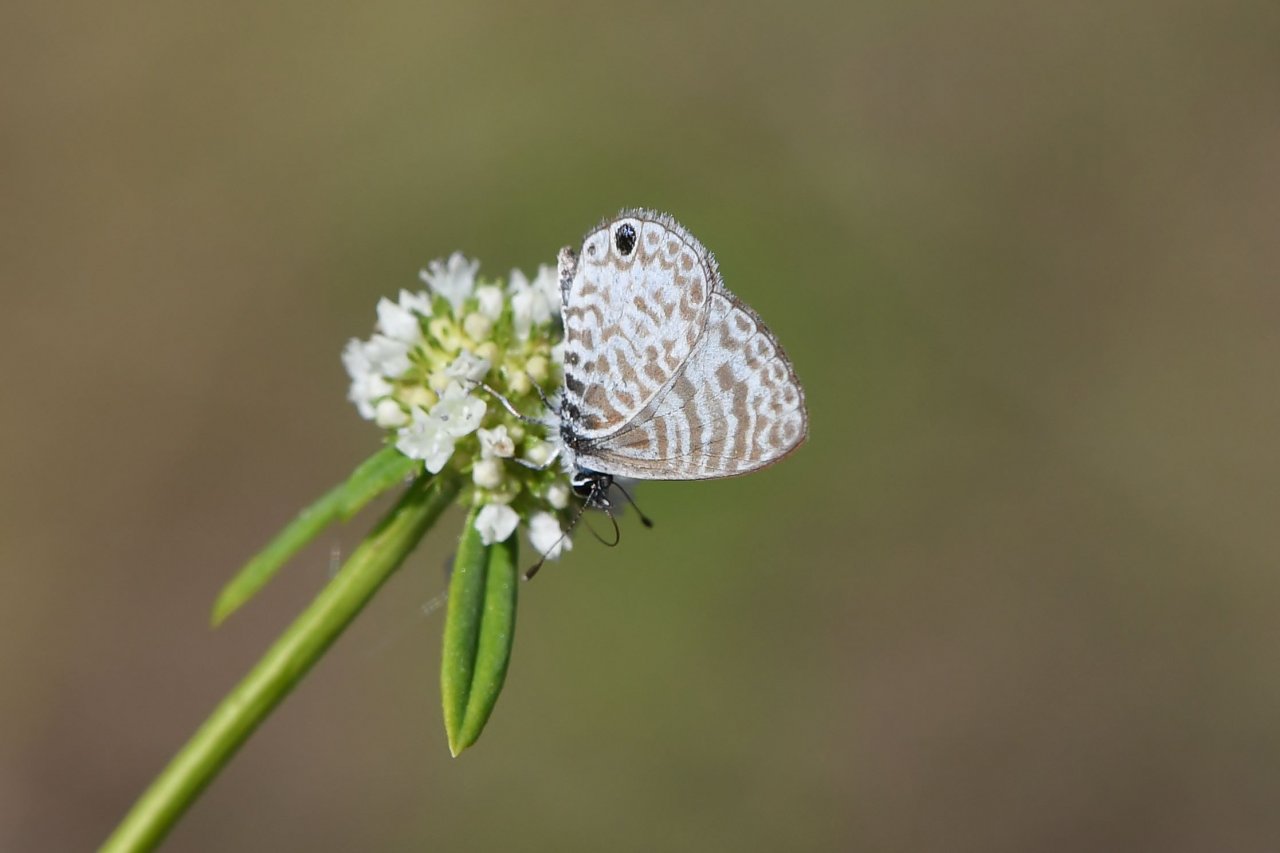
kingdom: Animalia
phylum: Arthropoda
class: Insecta
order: Lepidoptera
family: Lycaenidae
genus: Leptotes
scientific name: Leptotes cassius
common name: Cassius Blue
